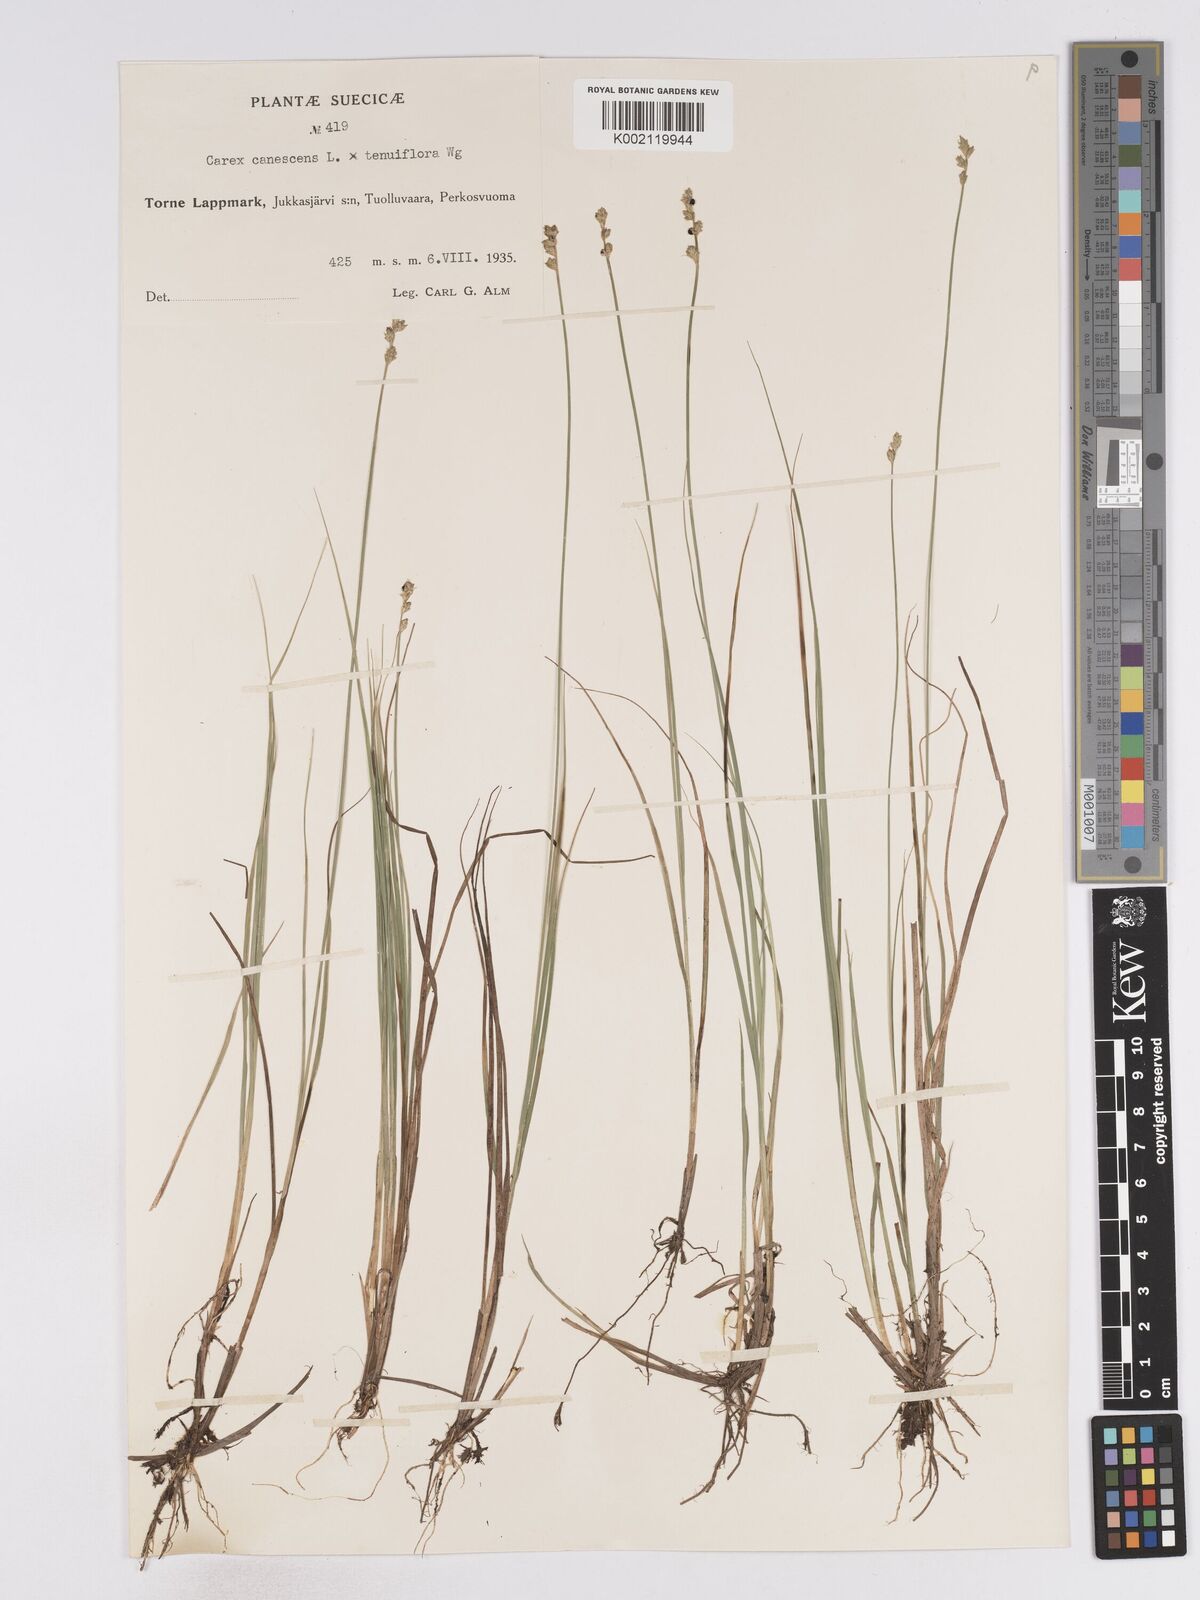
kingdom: Plantae
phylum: Tracheophyta
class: Liliopsida
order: Poales
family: Cyperaceae
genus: Carex
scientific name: Carex curta
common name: White sedge
